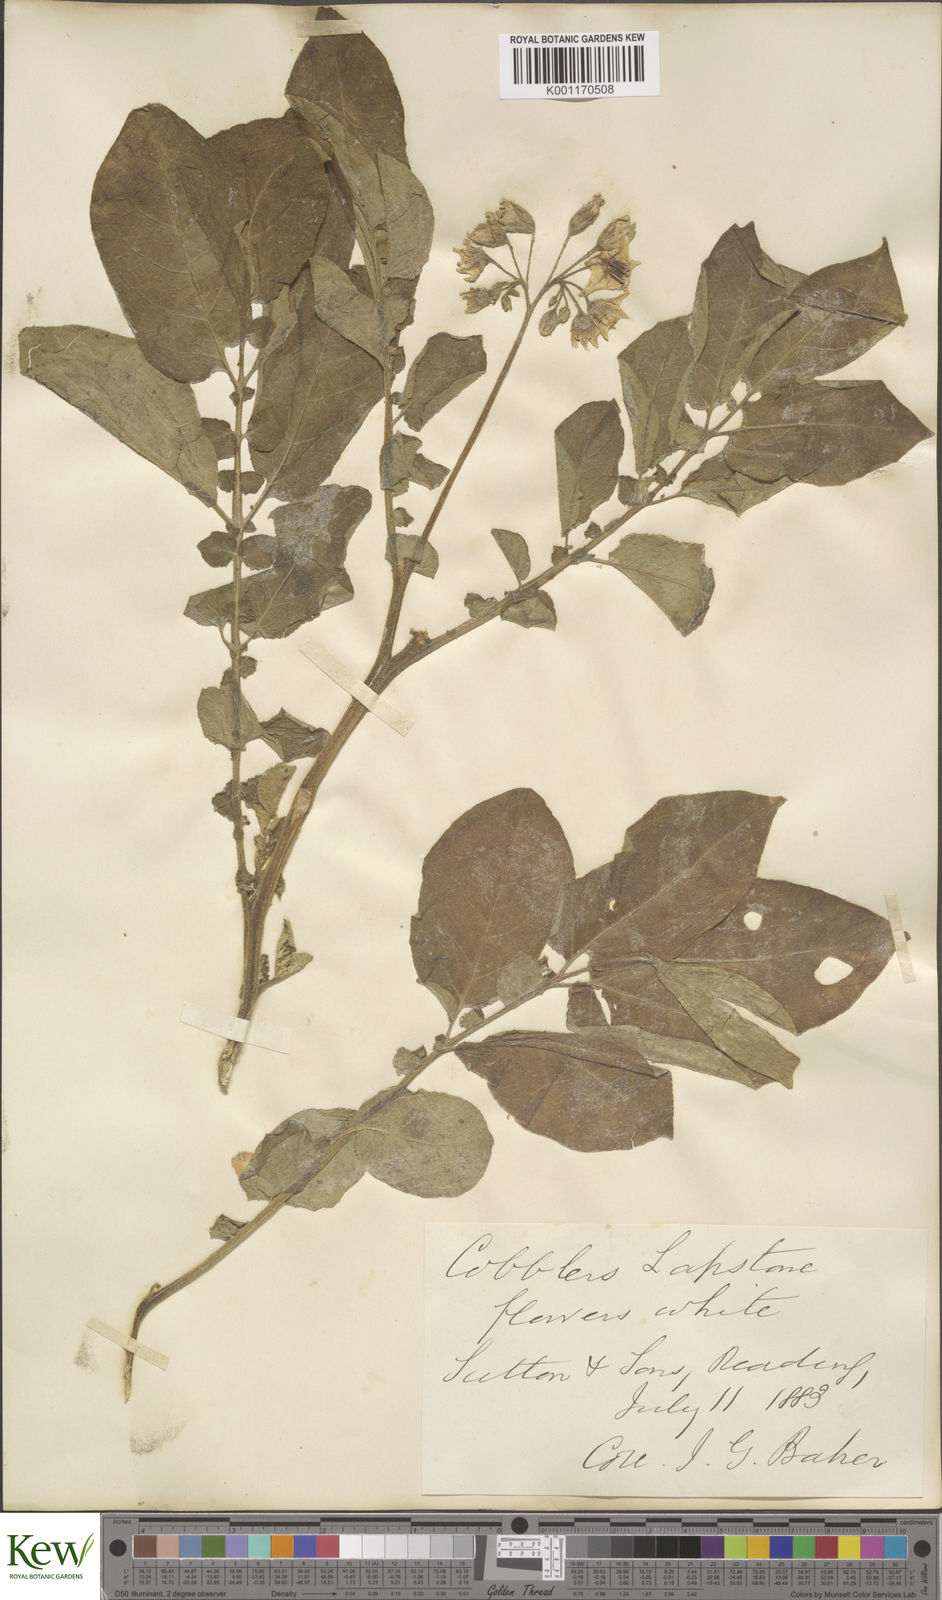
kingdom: Plantae
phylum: Tracheophyta
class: Magnoliopsida
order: Solanales
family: Solanaceae
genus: Solanum
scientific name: Solanum tuberosum
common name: Potato
